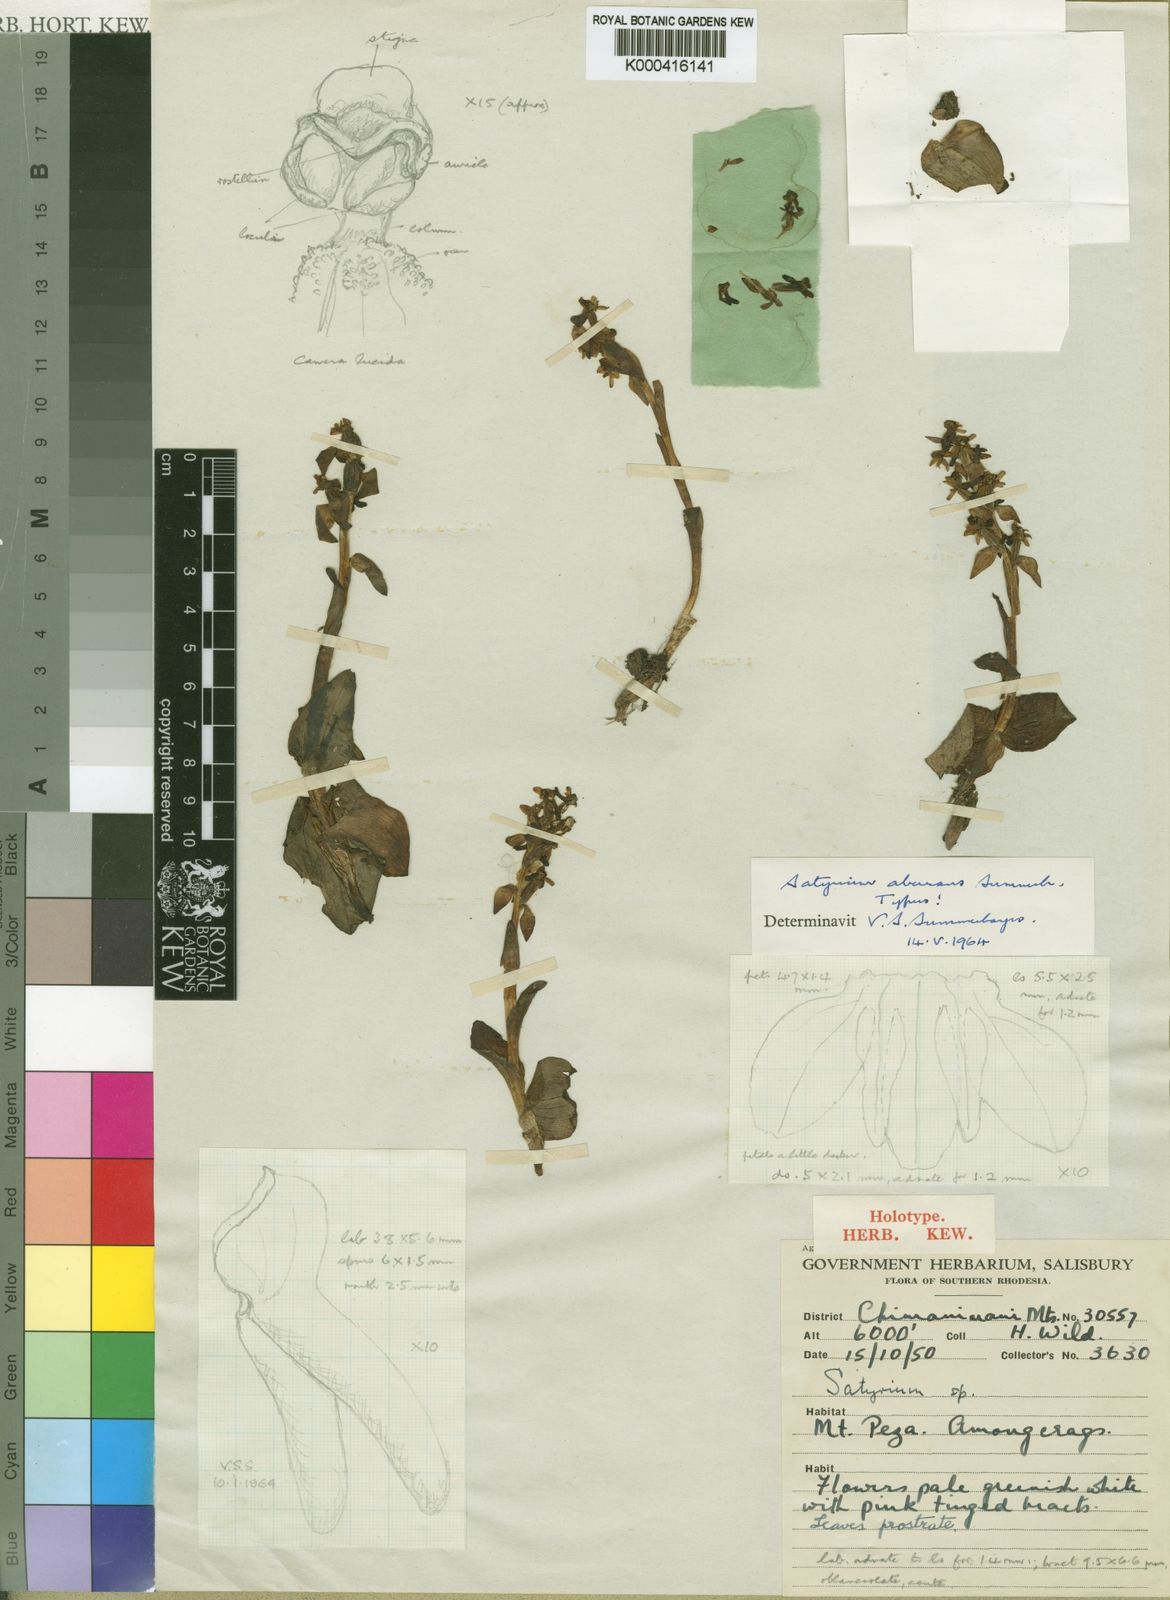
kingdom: Plantae
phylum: Tracheophyta
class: Liliopsida
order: Asparagales
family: Orchidaceae
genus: Satyrium
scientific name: Satyrium aberrans
